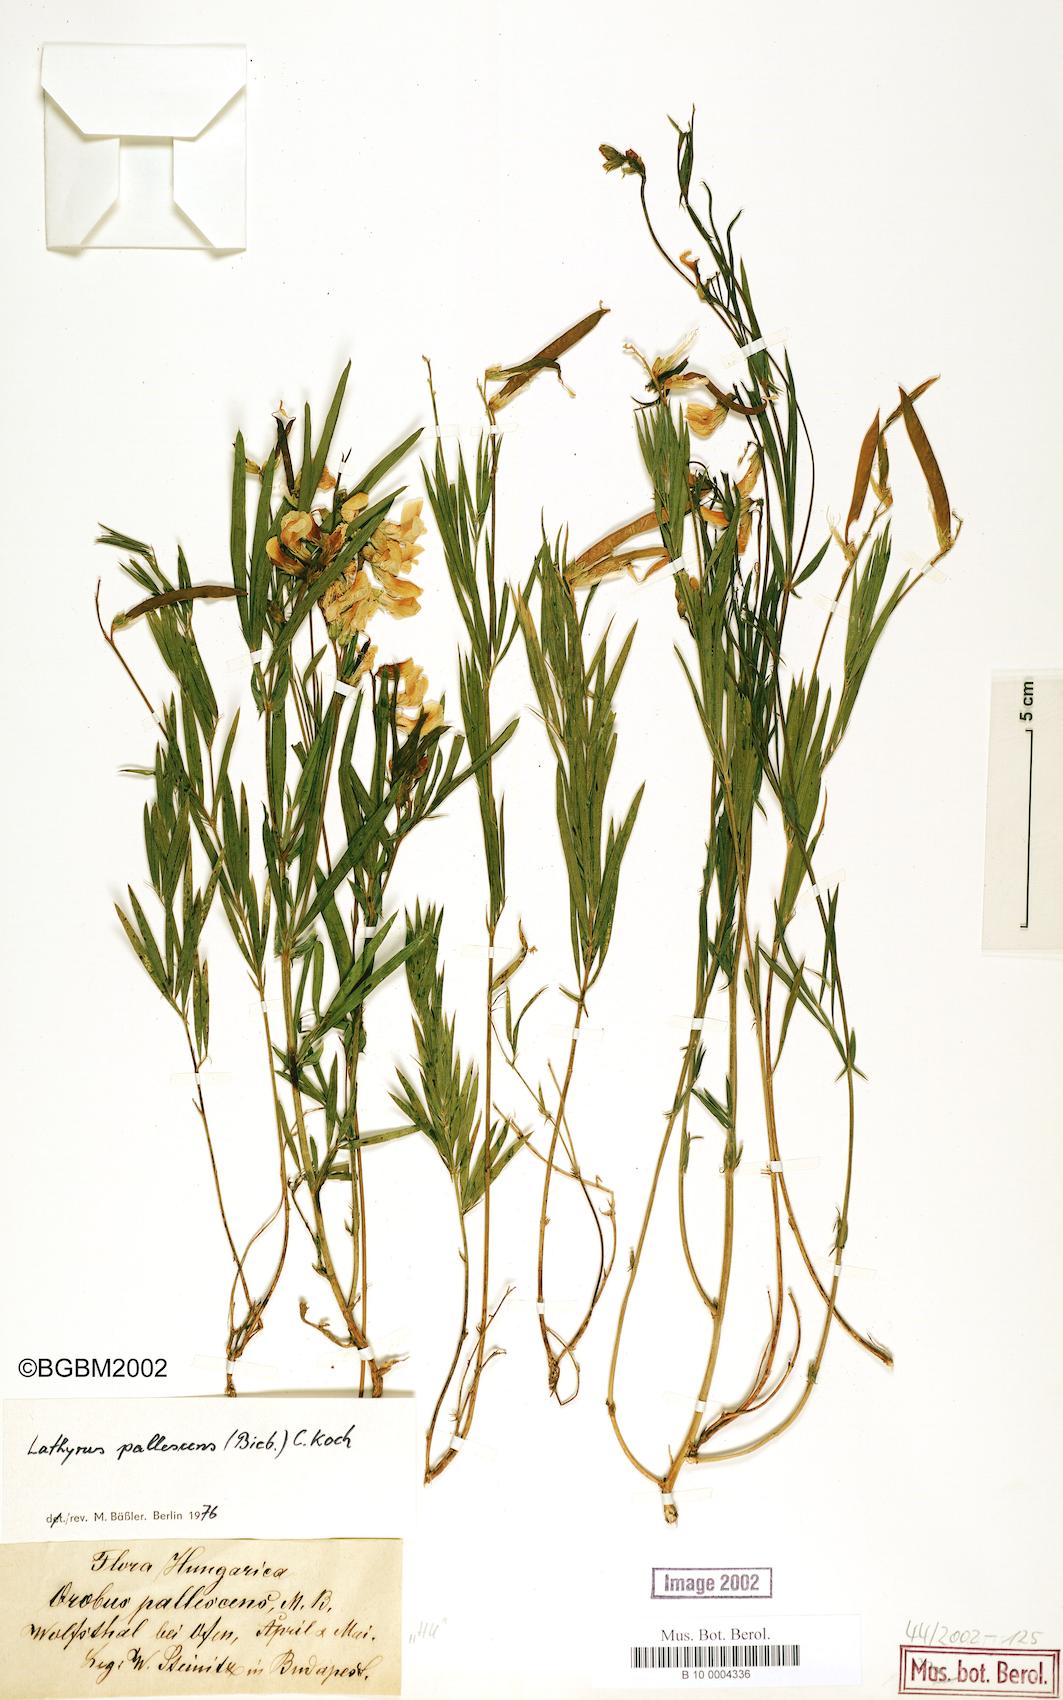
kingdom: Plantae
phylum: Tracheophyta
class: Magnoliopsida
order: Fabales
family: Fabaceae
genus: Lathyrus
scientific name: Lathyrus pallescens
